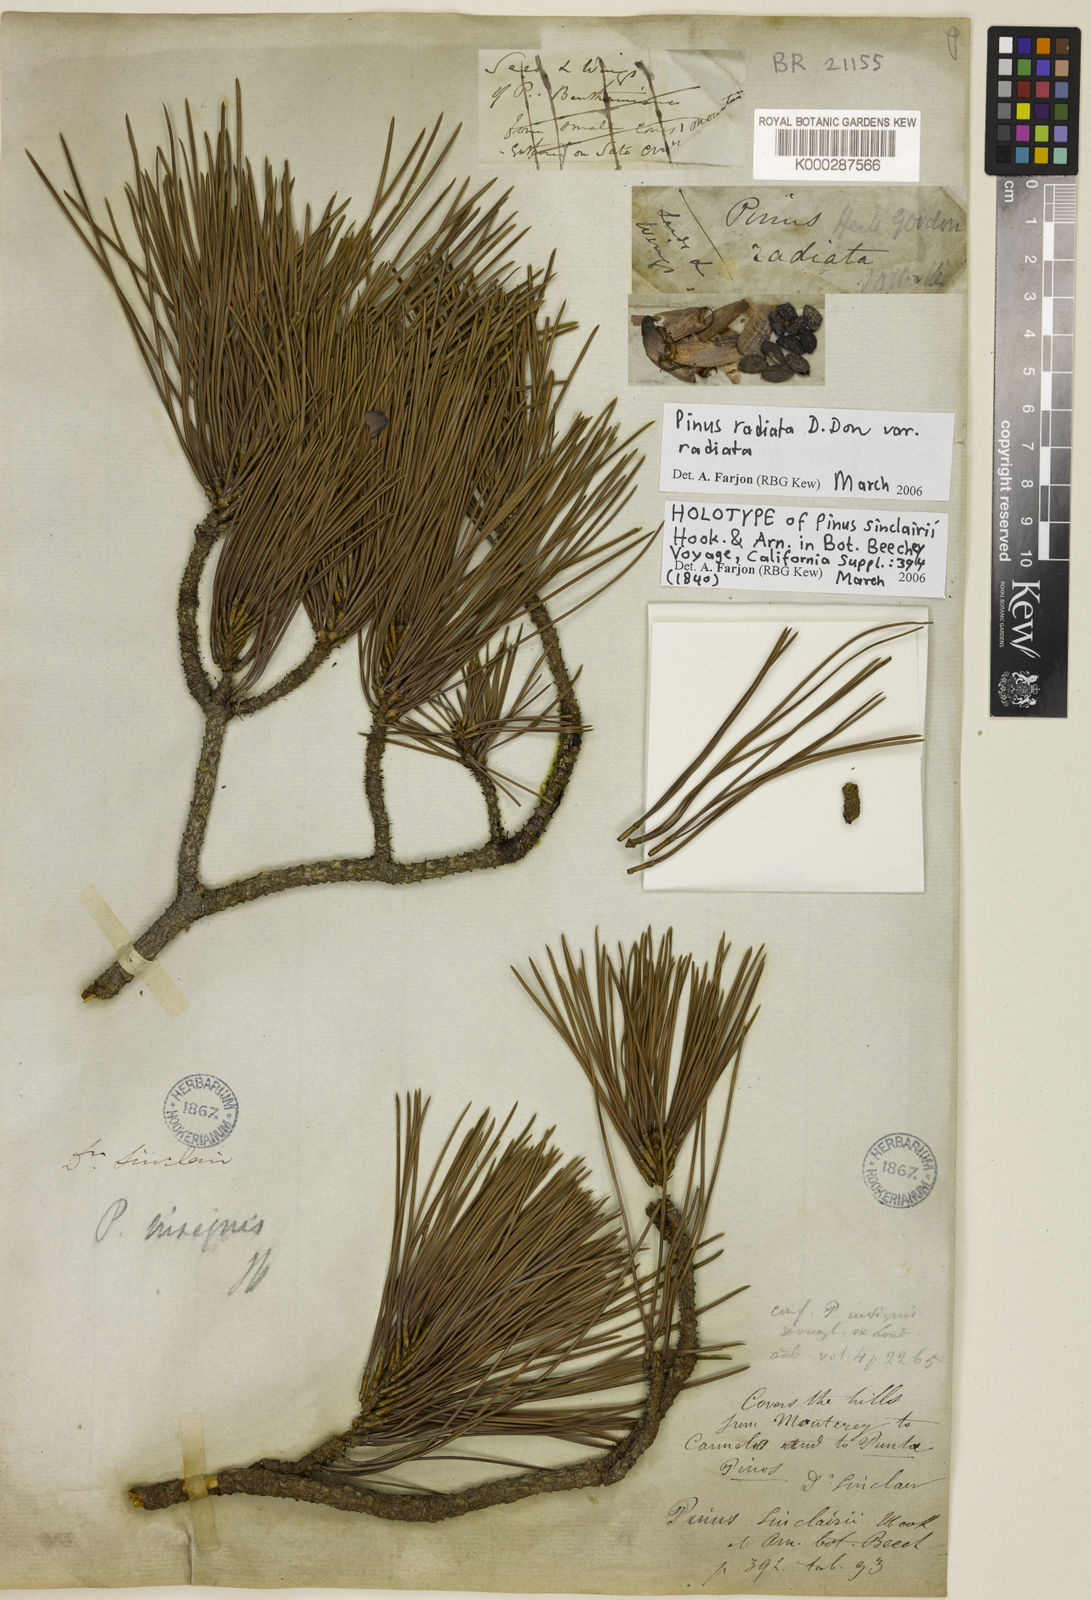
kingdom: Plantae
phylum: Tracheophyta
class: Pinopsida
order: Pinales
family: Pinaceae
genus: Pinus
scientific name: Pinus radiata
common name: Monterey pine
